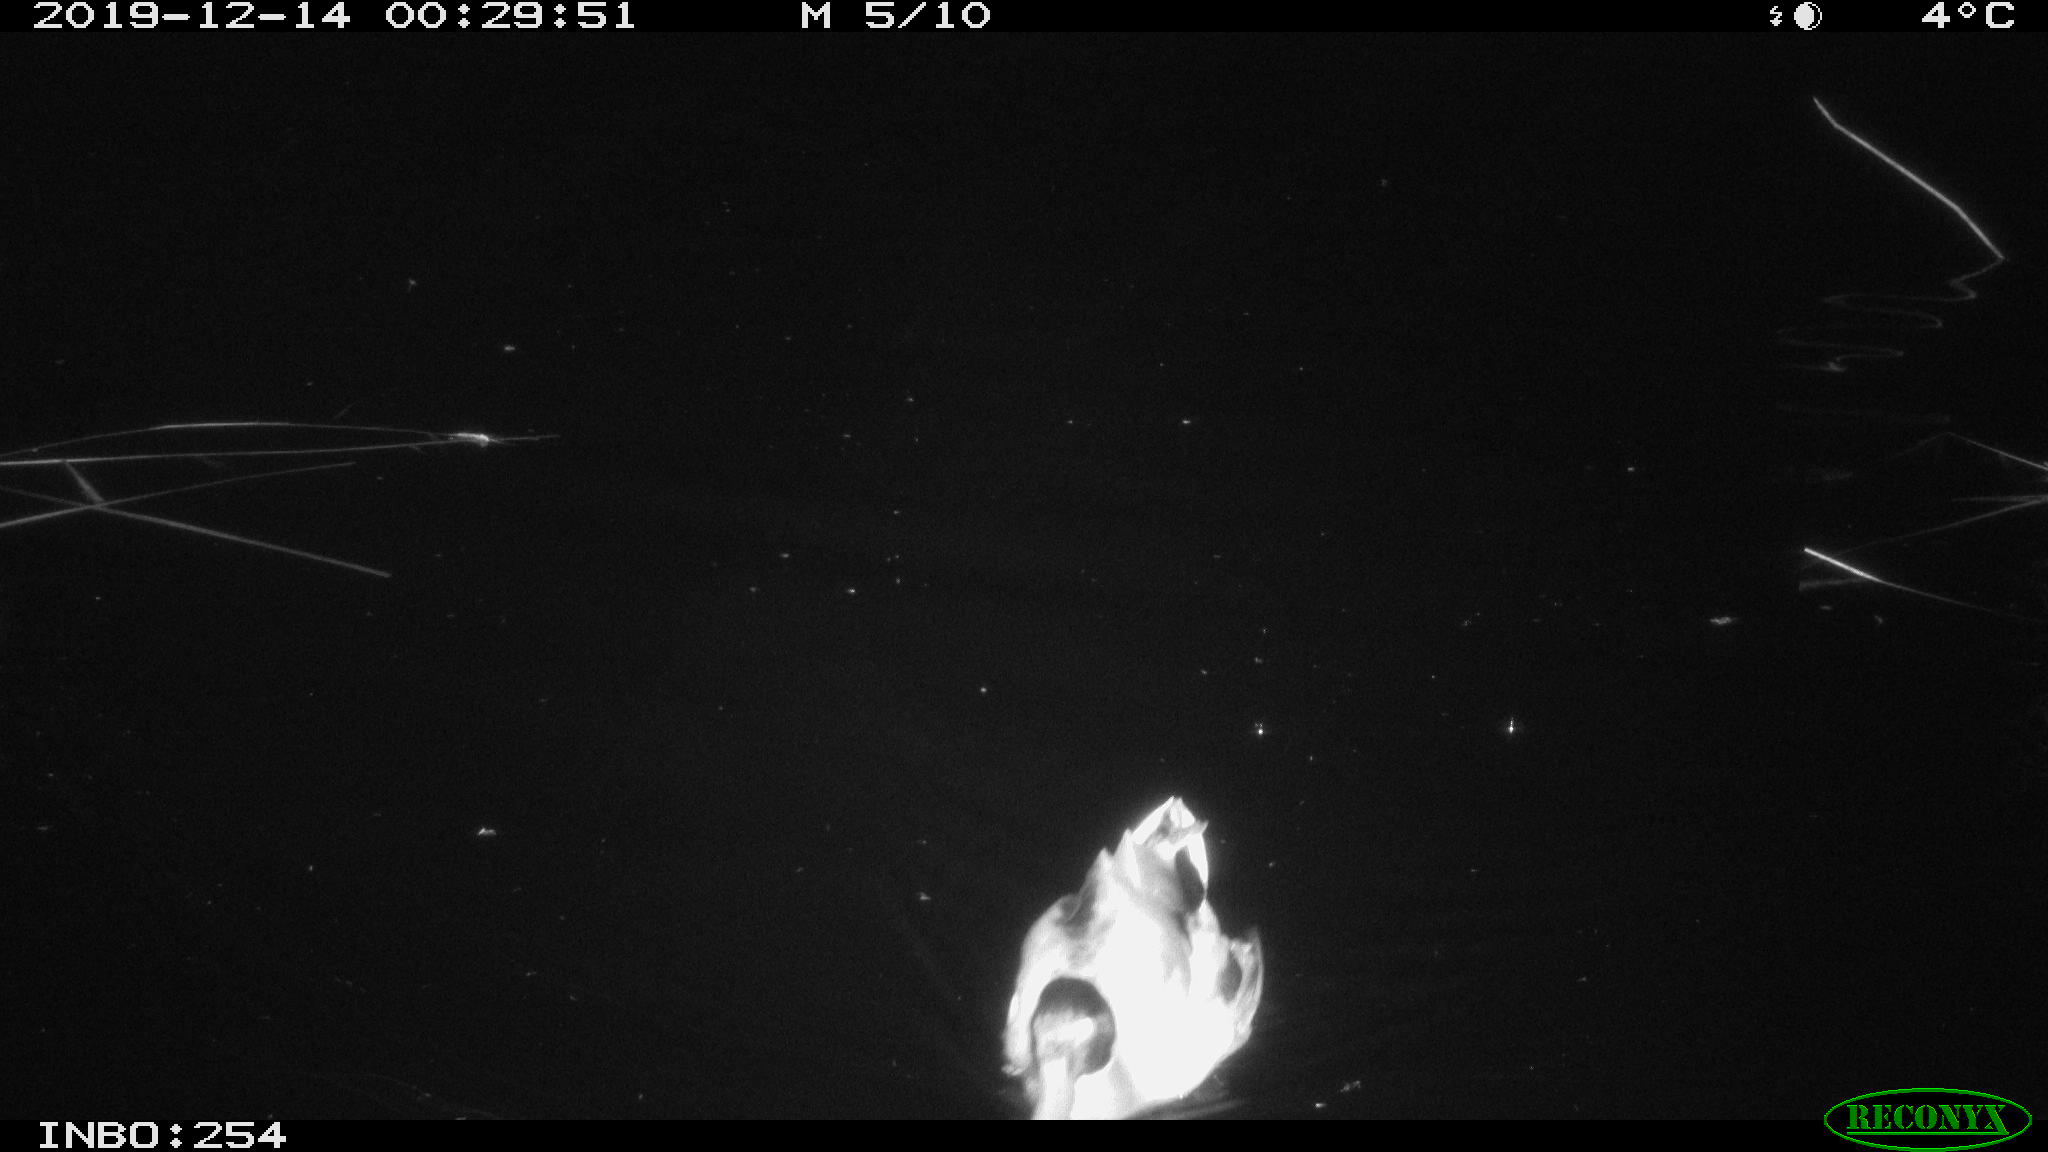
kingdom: Animalia
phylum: Chordata
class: Aves
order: Anseriformes
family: Anatidae
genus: Anas
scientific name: Anas platyrhynchos
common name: Mallard
